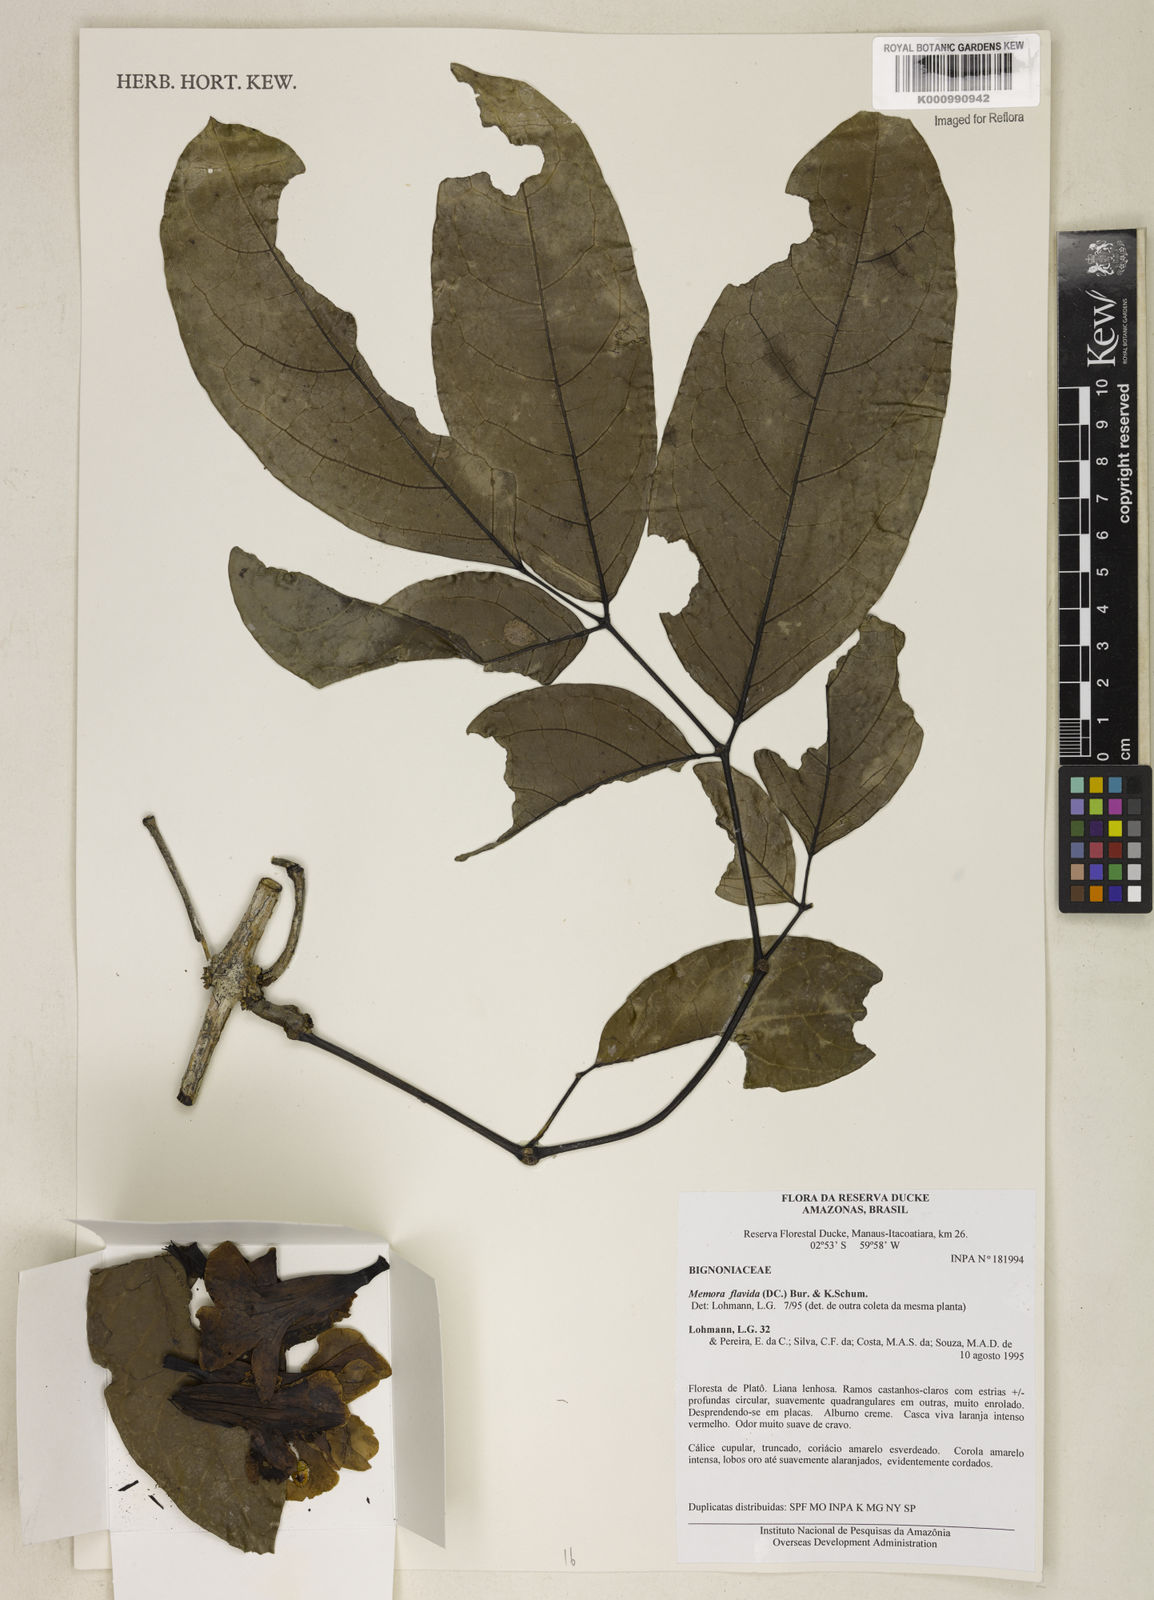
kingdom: Plantae
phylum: Tracheophyta
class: Magnoliopsida
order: Lamiales
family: Bignoniaceae
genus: Adenocalymma
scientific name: Adenocalymma neoflavidum
